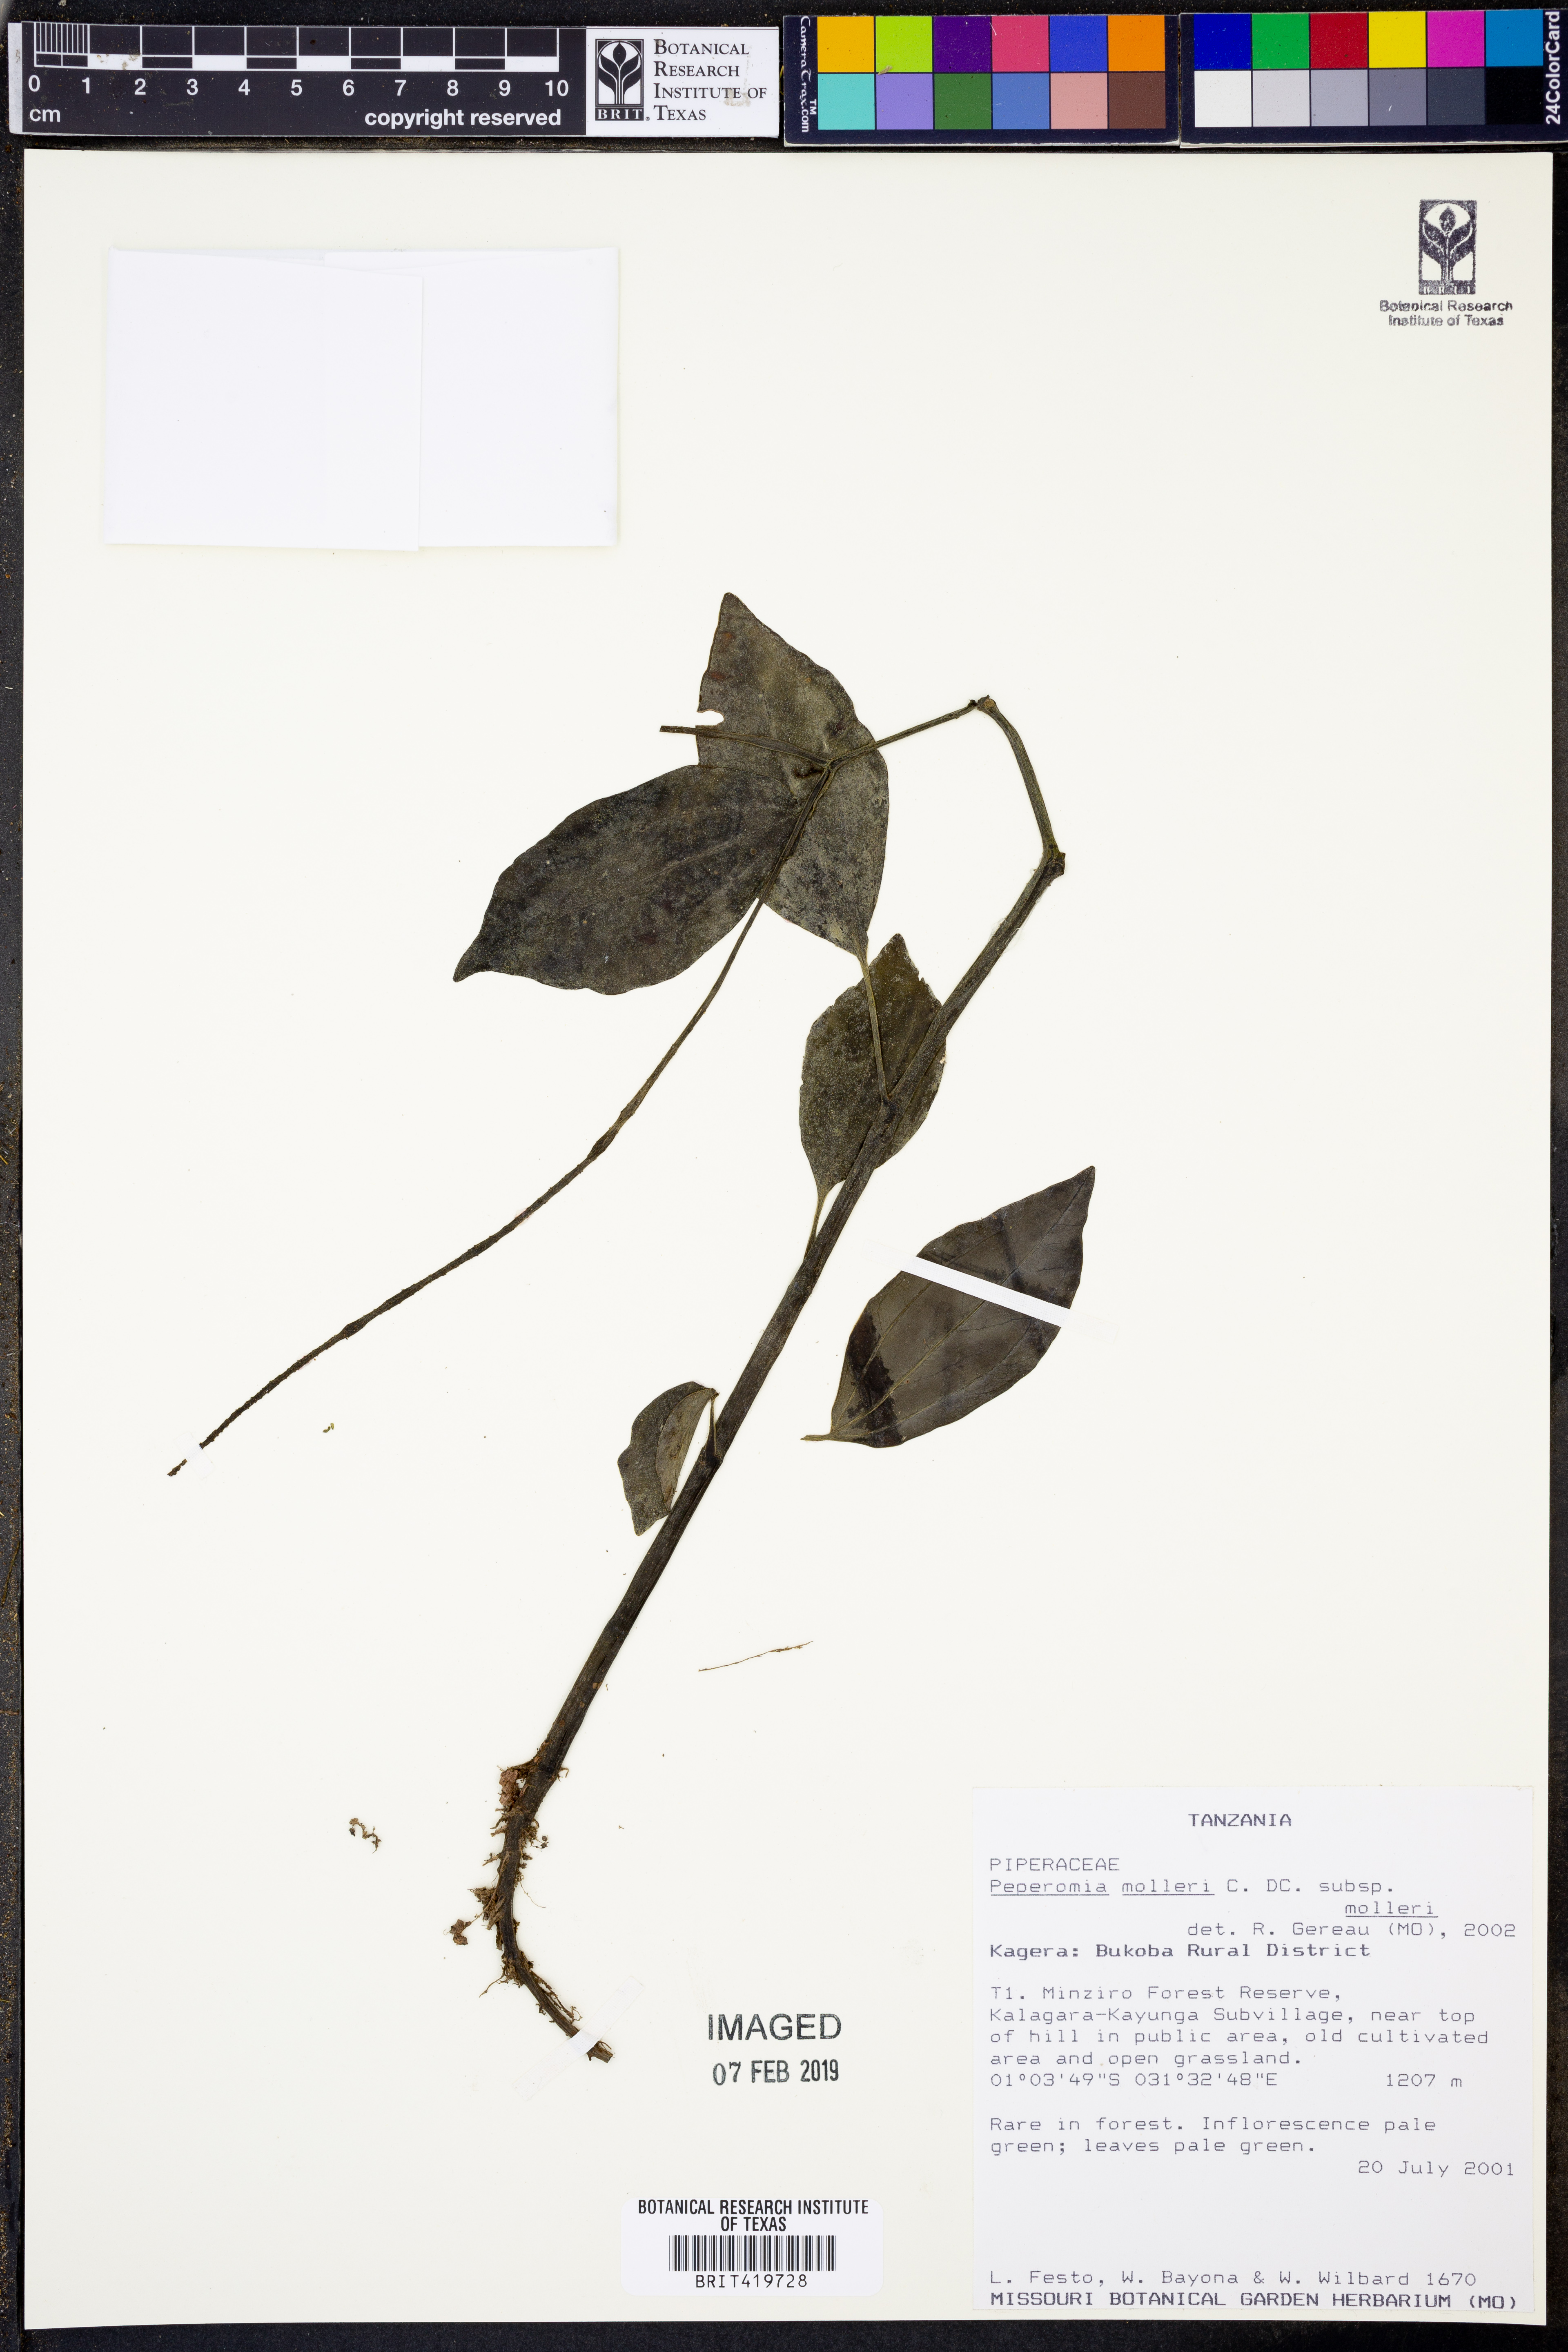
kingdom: Plantae
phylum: Tracheophyta
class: Magnoliopsida
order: Piperales
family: Piperaceae
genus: Peperomia
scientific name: Peperomia molleri
